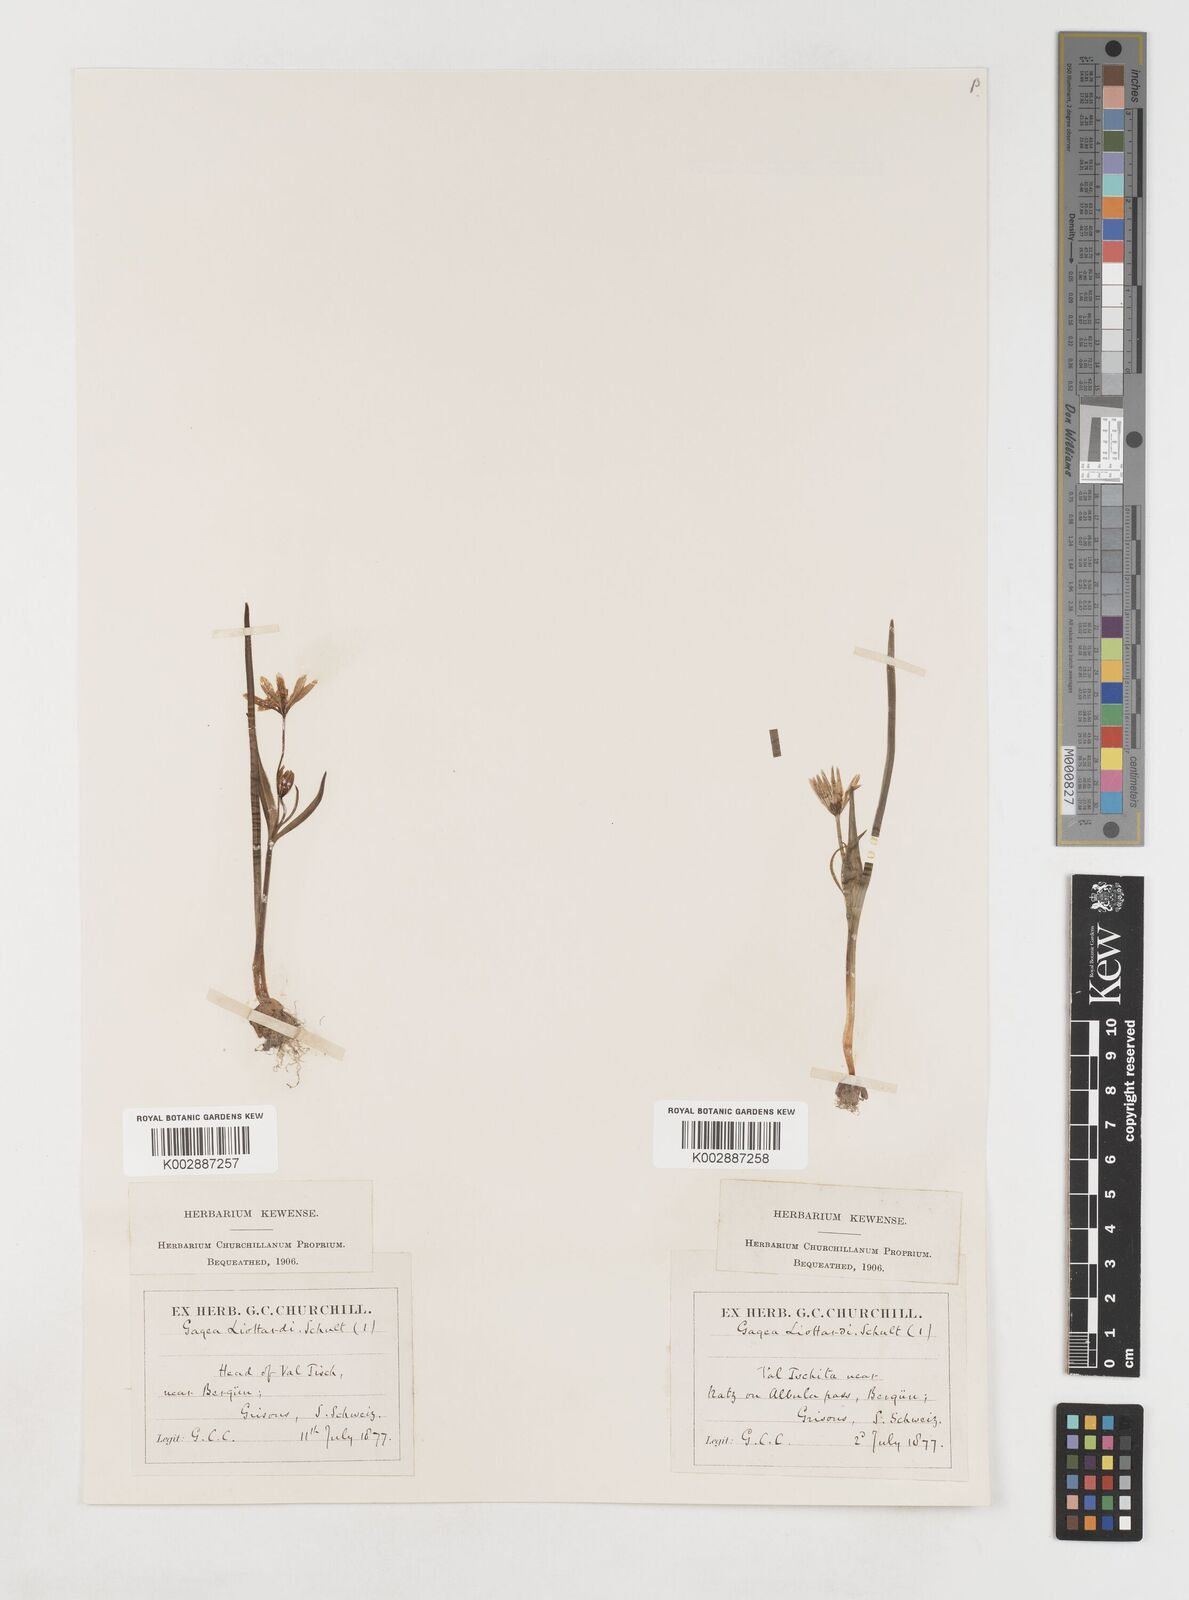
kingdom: Plantae
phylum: Tracheophyta
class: Liliopsida
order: Liliales
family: Liliaceae
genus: Gagea
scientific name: Gagea bohemica
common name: Early star-of-bethlehem
